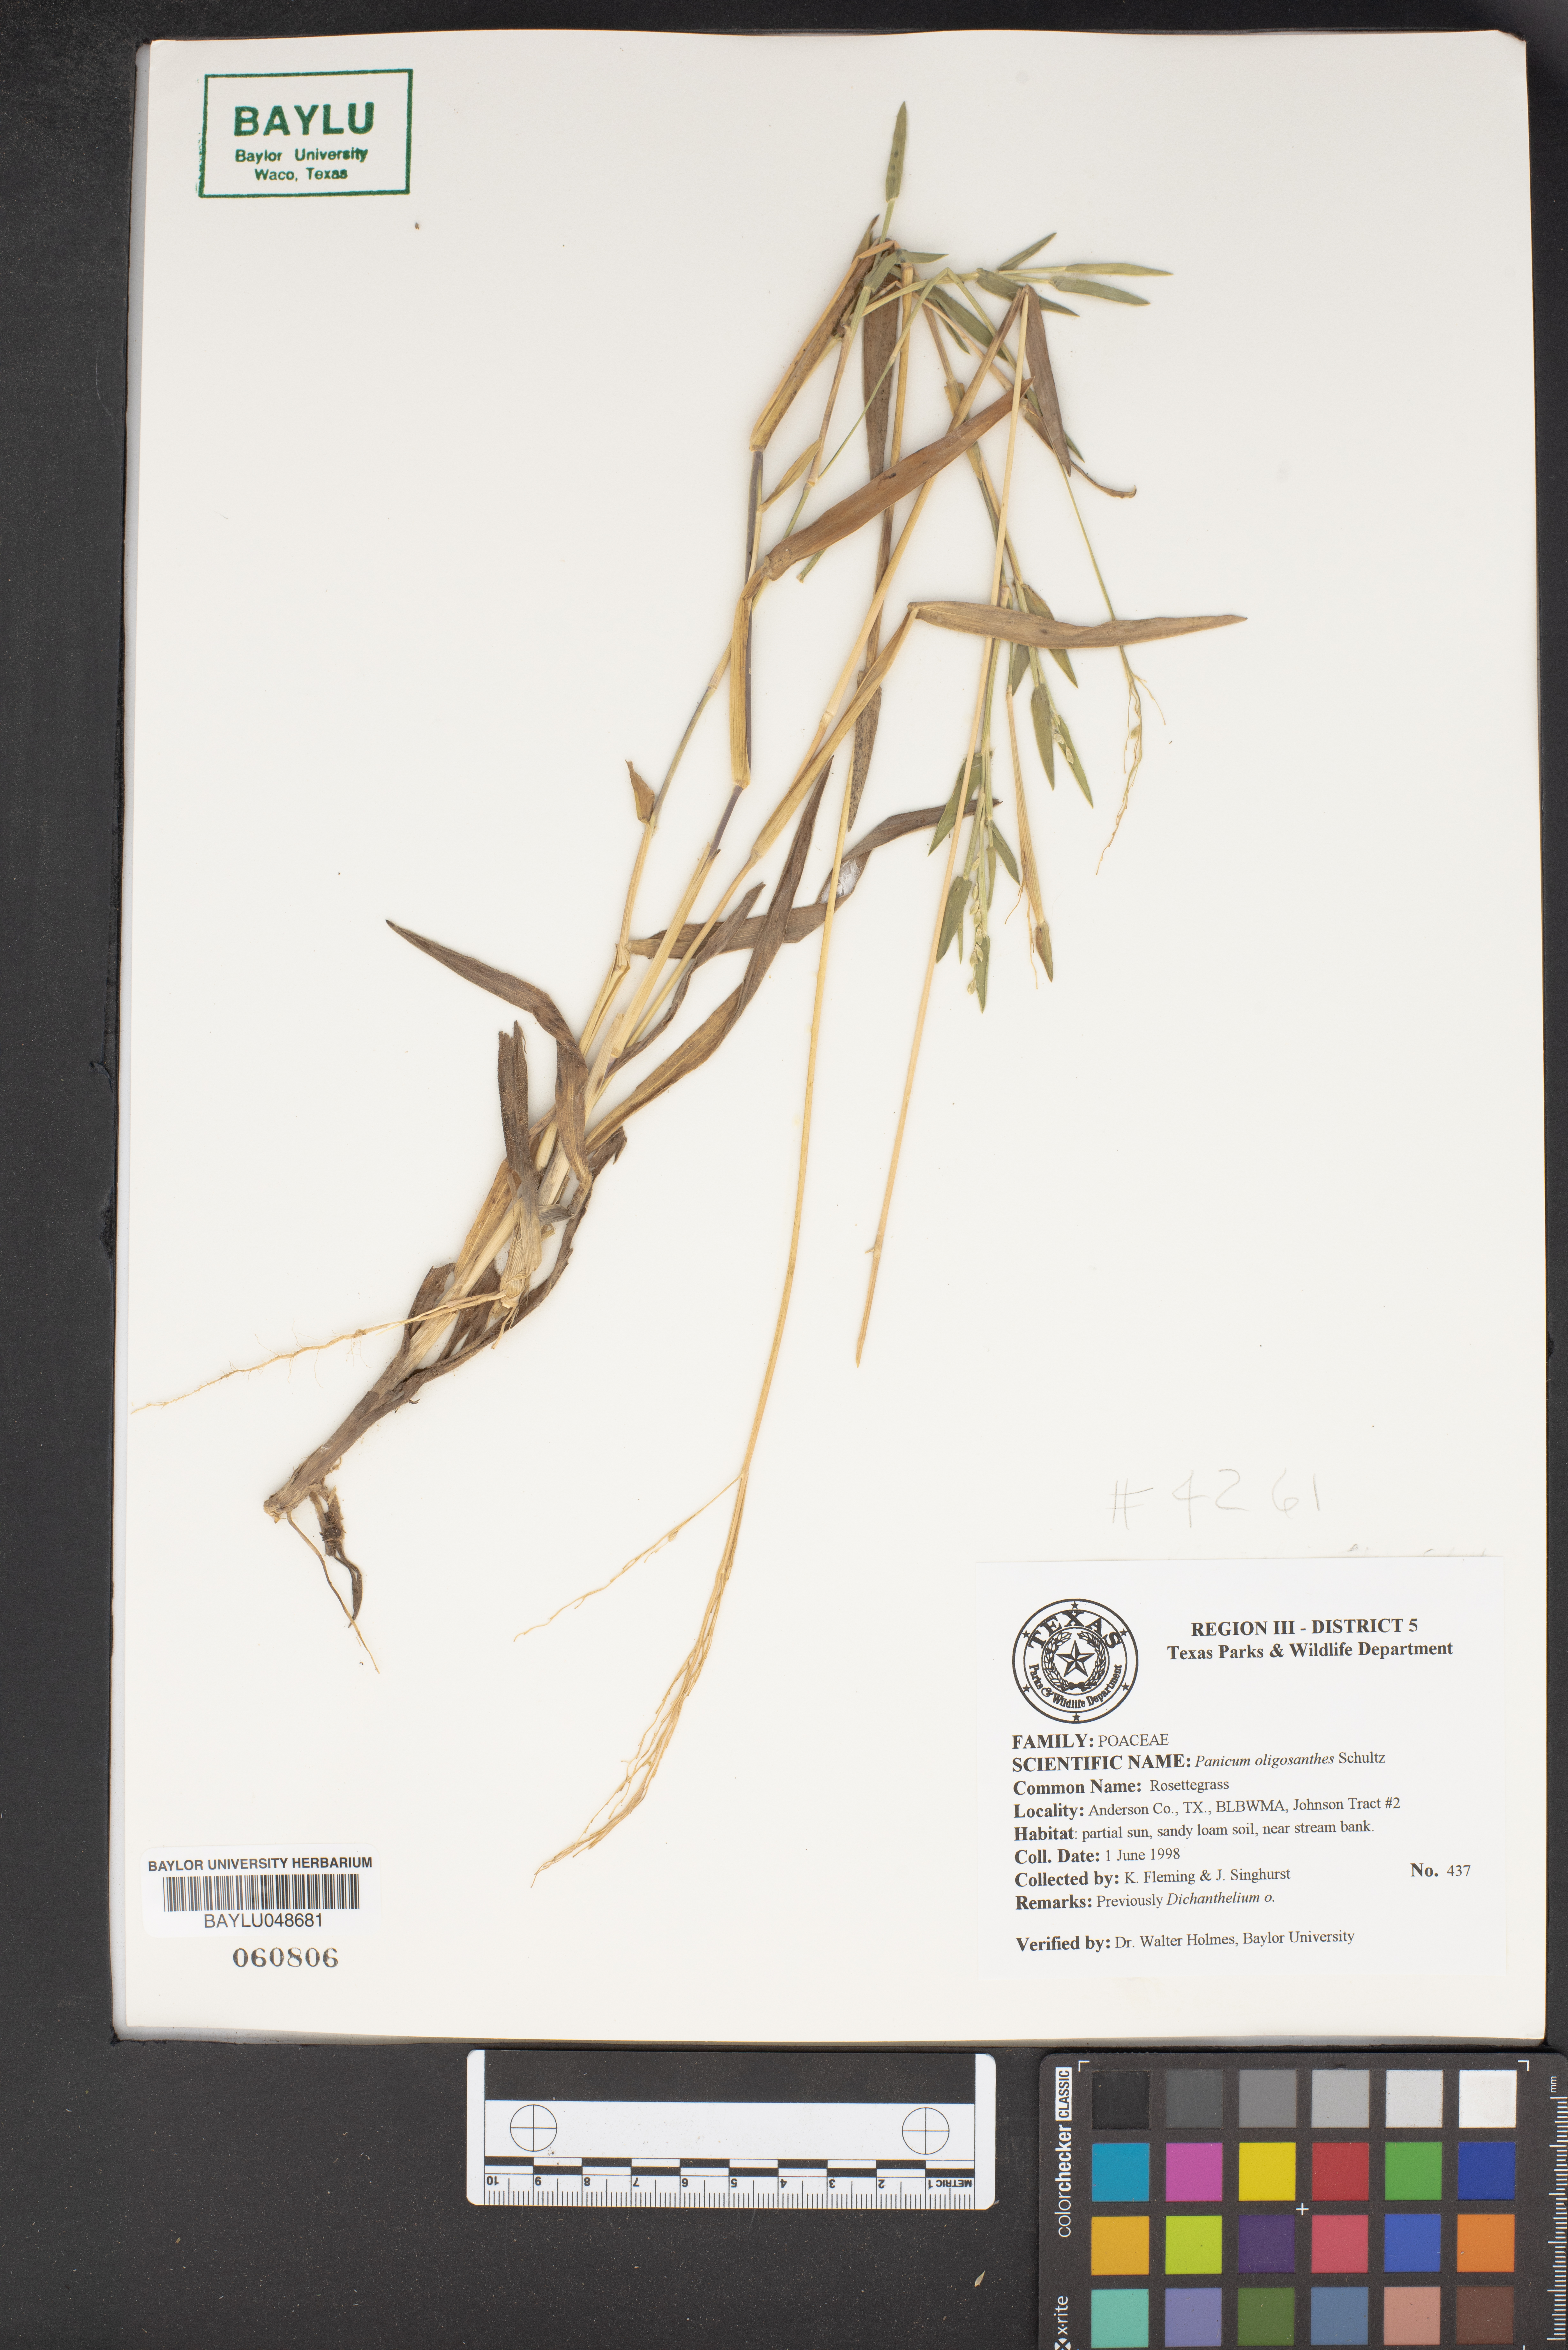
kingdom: Plantae
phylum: Tracheophyta
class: Liliopsida
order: Poales
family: Poaceae
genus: Dichanthelium
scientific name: Dichanthelium oligosanthes
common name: Few-anther obscuregrass
